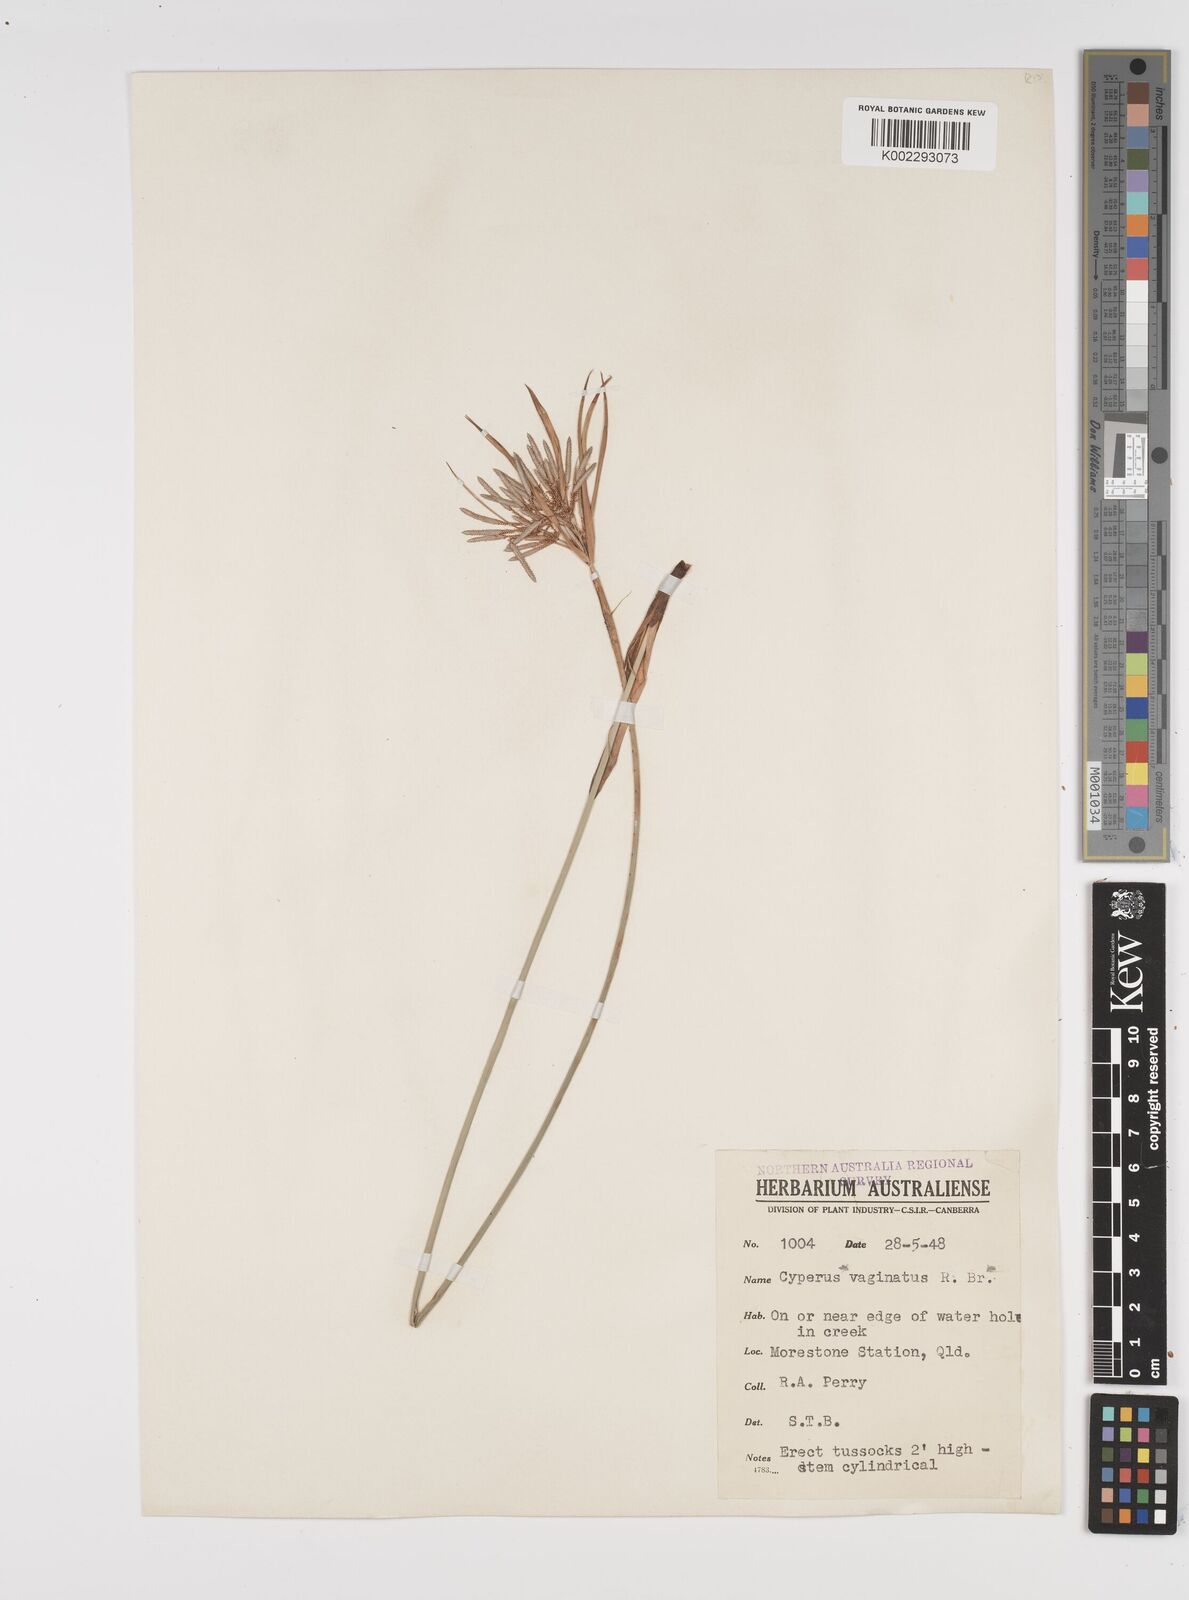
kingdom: Plantae
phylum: Tracheophyta
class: Liliopsida
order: Poales
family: Cyperaceae
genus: Cyperus
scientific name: Cyperus vaginatus
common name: Stiff-leaved flat-sedge
